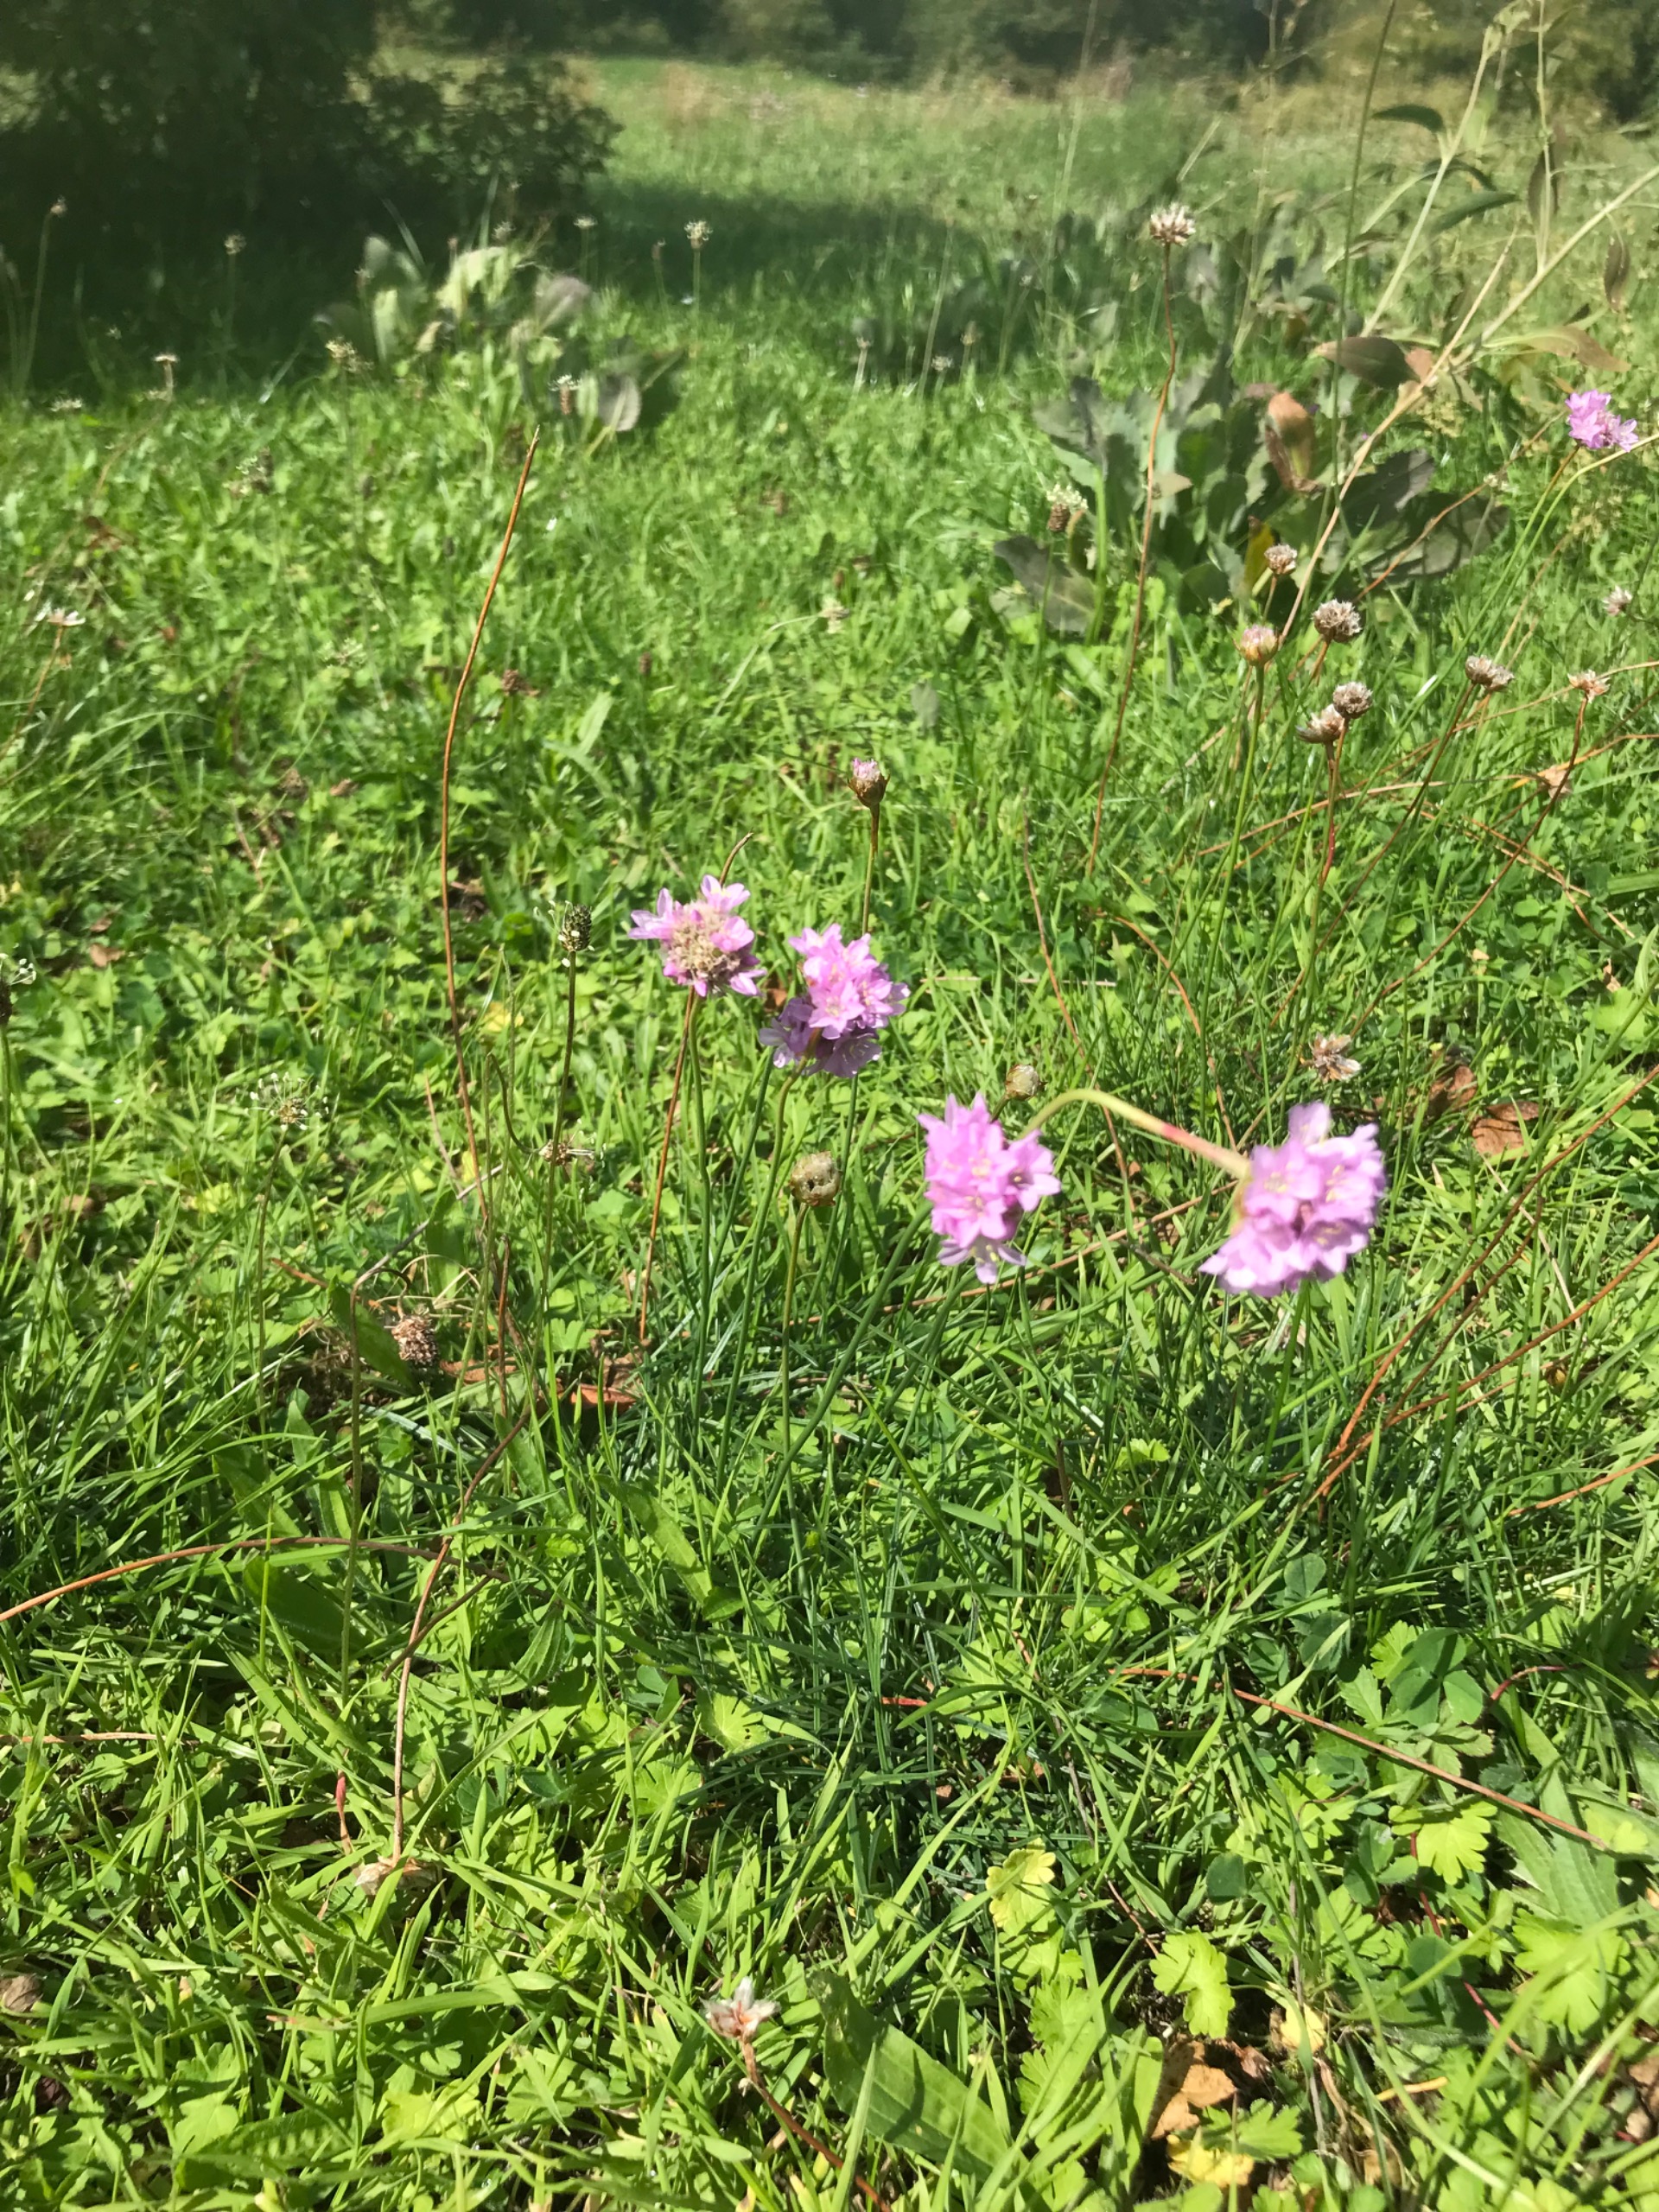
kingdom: Plantae
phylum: Tracheophyta
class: Magnoliopsida
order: Caryophyllales
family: Plumbaginaceae
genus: Armeria
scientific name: Armeria maritima
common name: Engelskgræs
